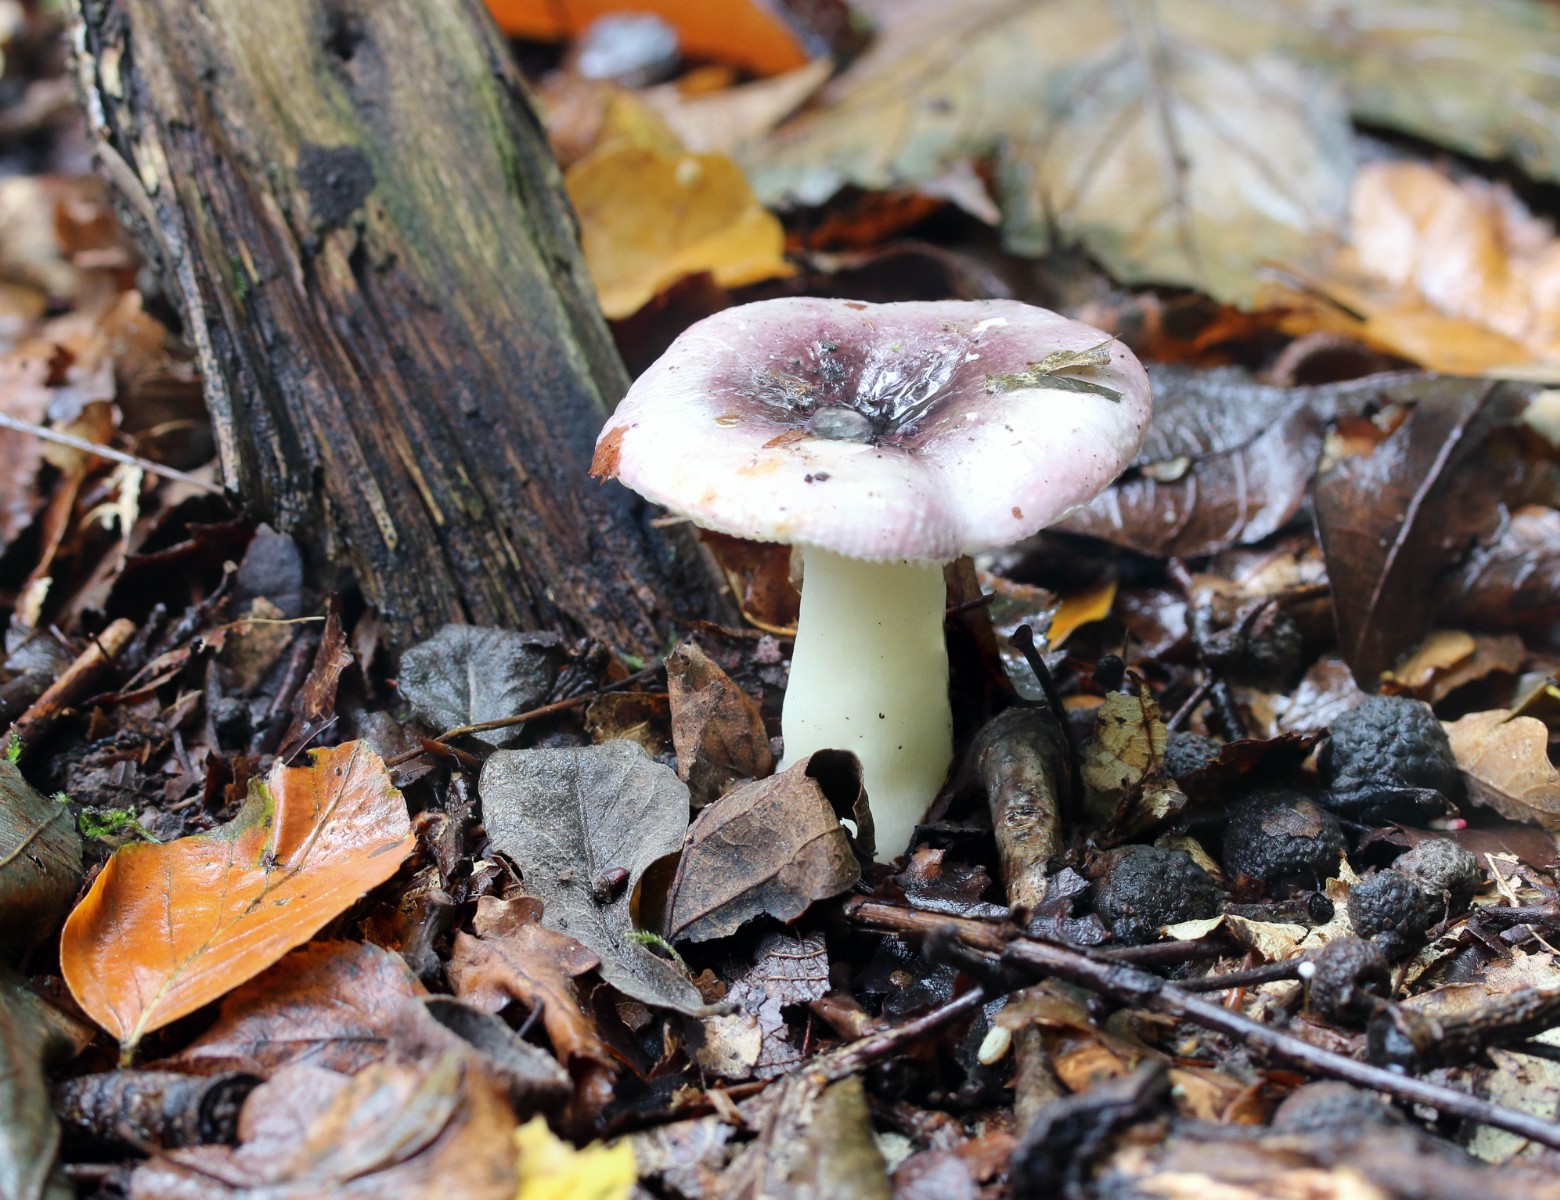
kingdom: Fungi
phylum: Basidiomycota
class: Agaricomycetes
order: Russulales
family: Russulaceae
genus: Russula
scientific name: Russula betularum
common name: bleg gift-skørhat
